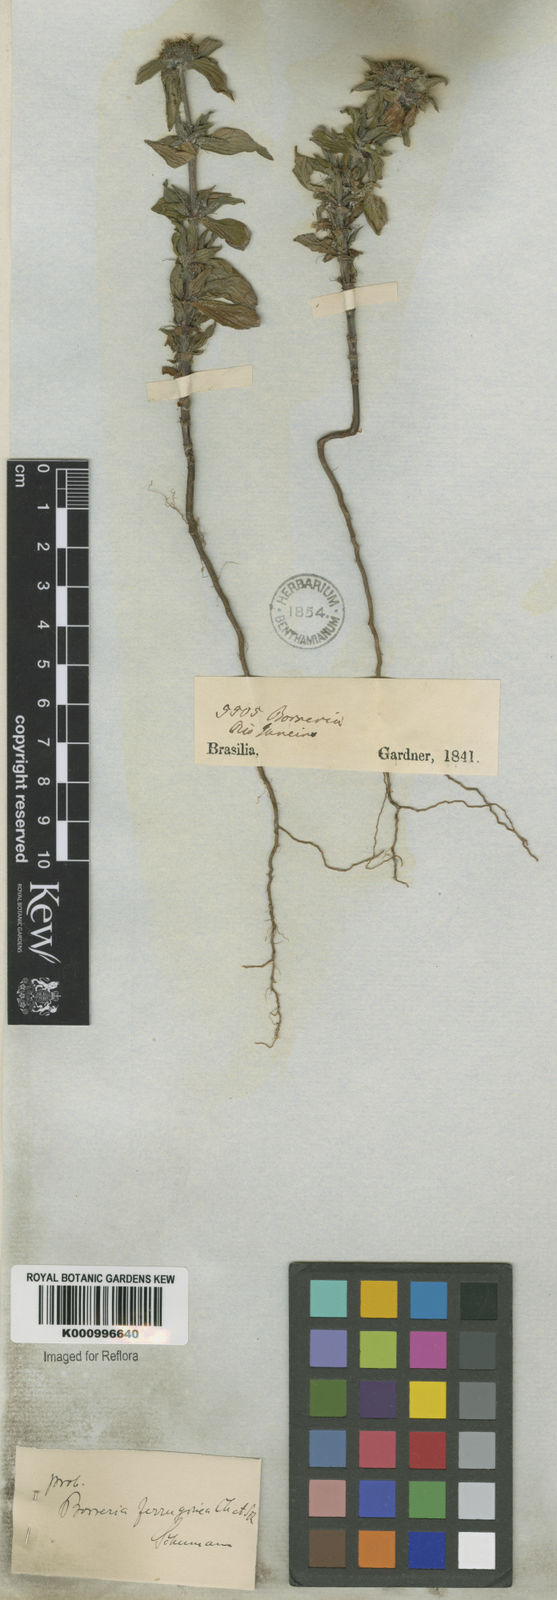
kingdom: Plantae
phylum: Tracheophyta
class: Magnoliopsida
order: Gentianales
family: Rubiaceae
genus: Spermacoce
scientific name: Spermacoce
